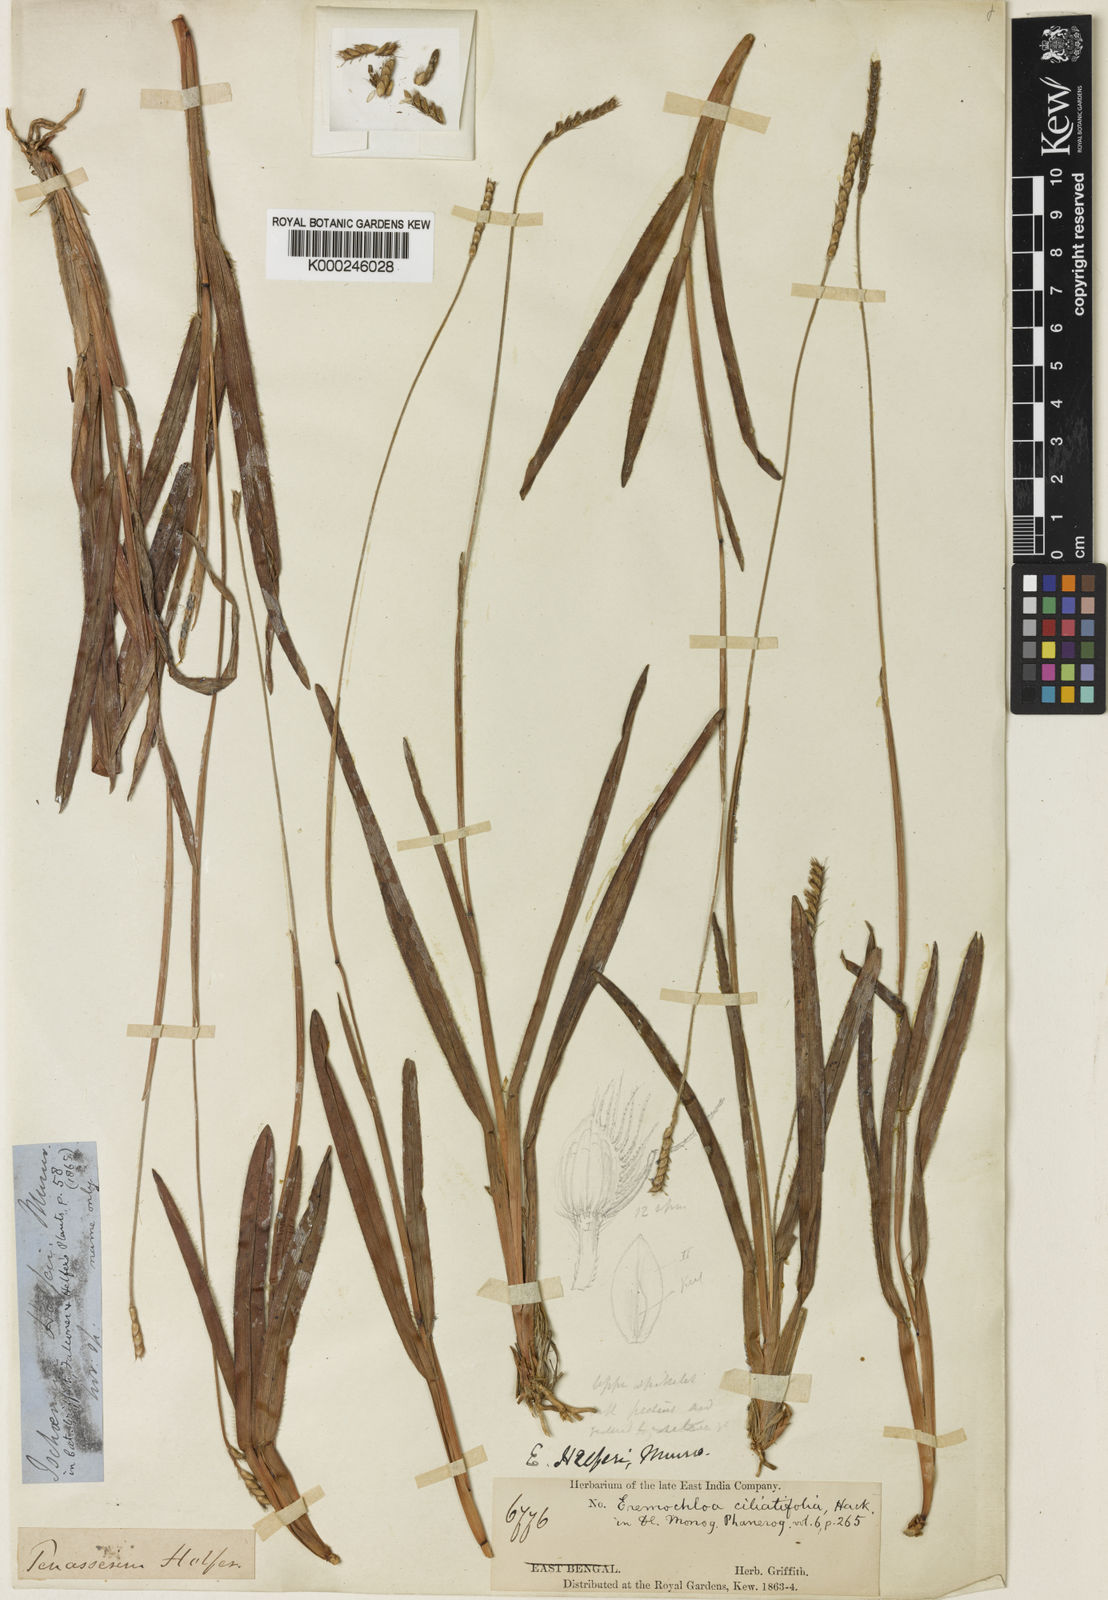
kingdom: Plantae
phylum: Tracheophyta
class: Liliopsida
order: Poales
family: Poaceae
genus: Eremochloa
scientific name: Eremochloa ciliatifolia
